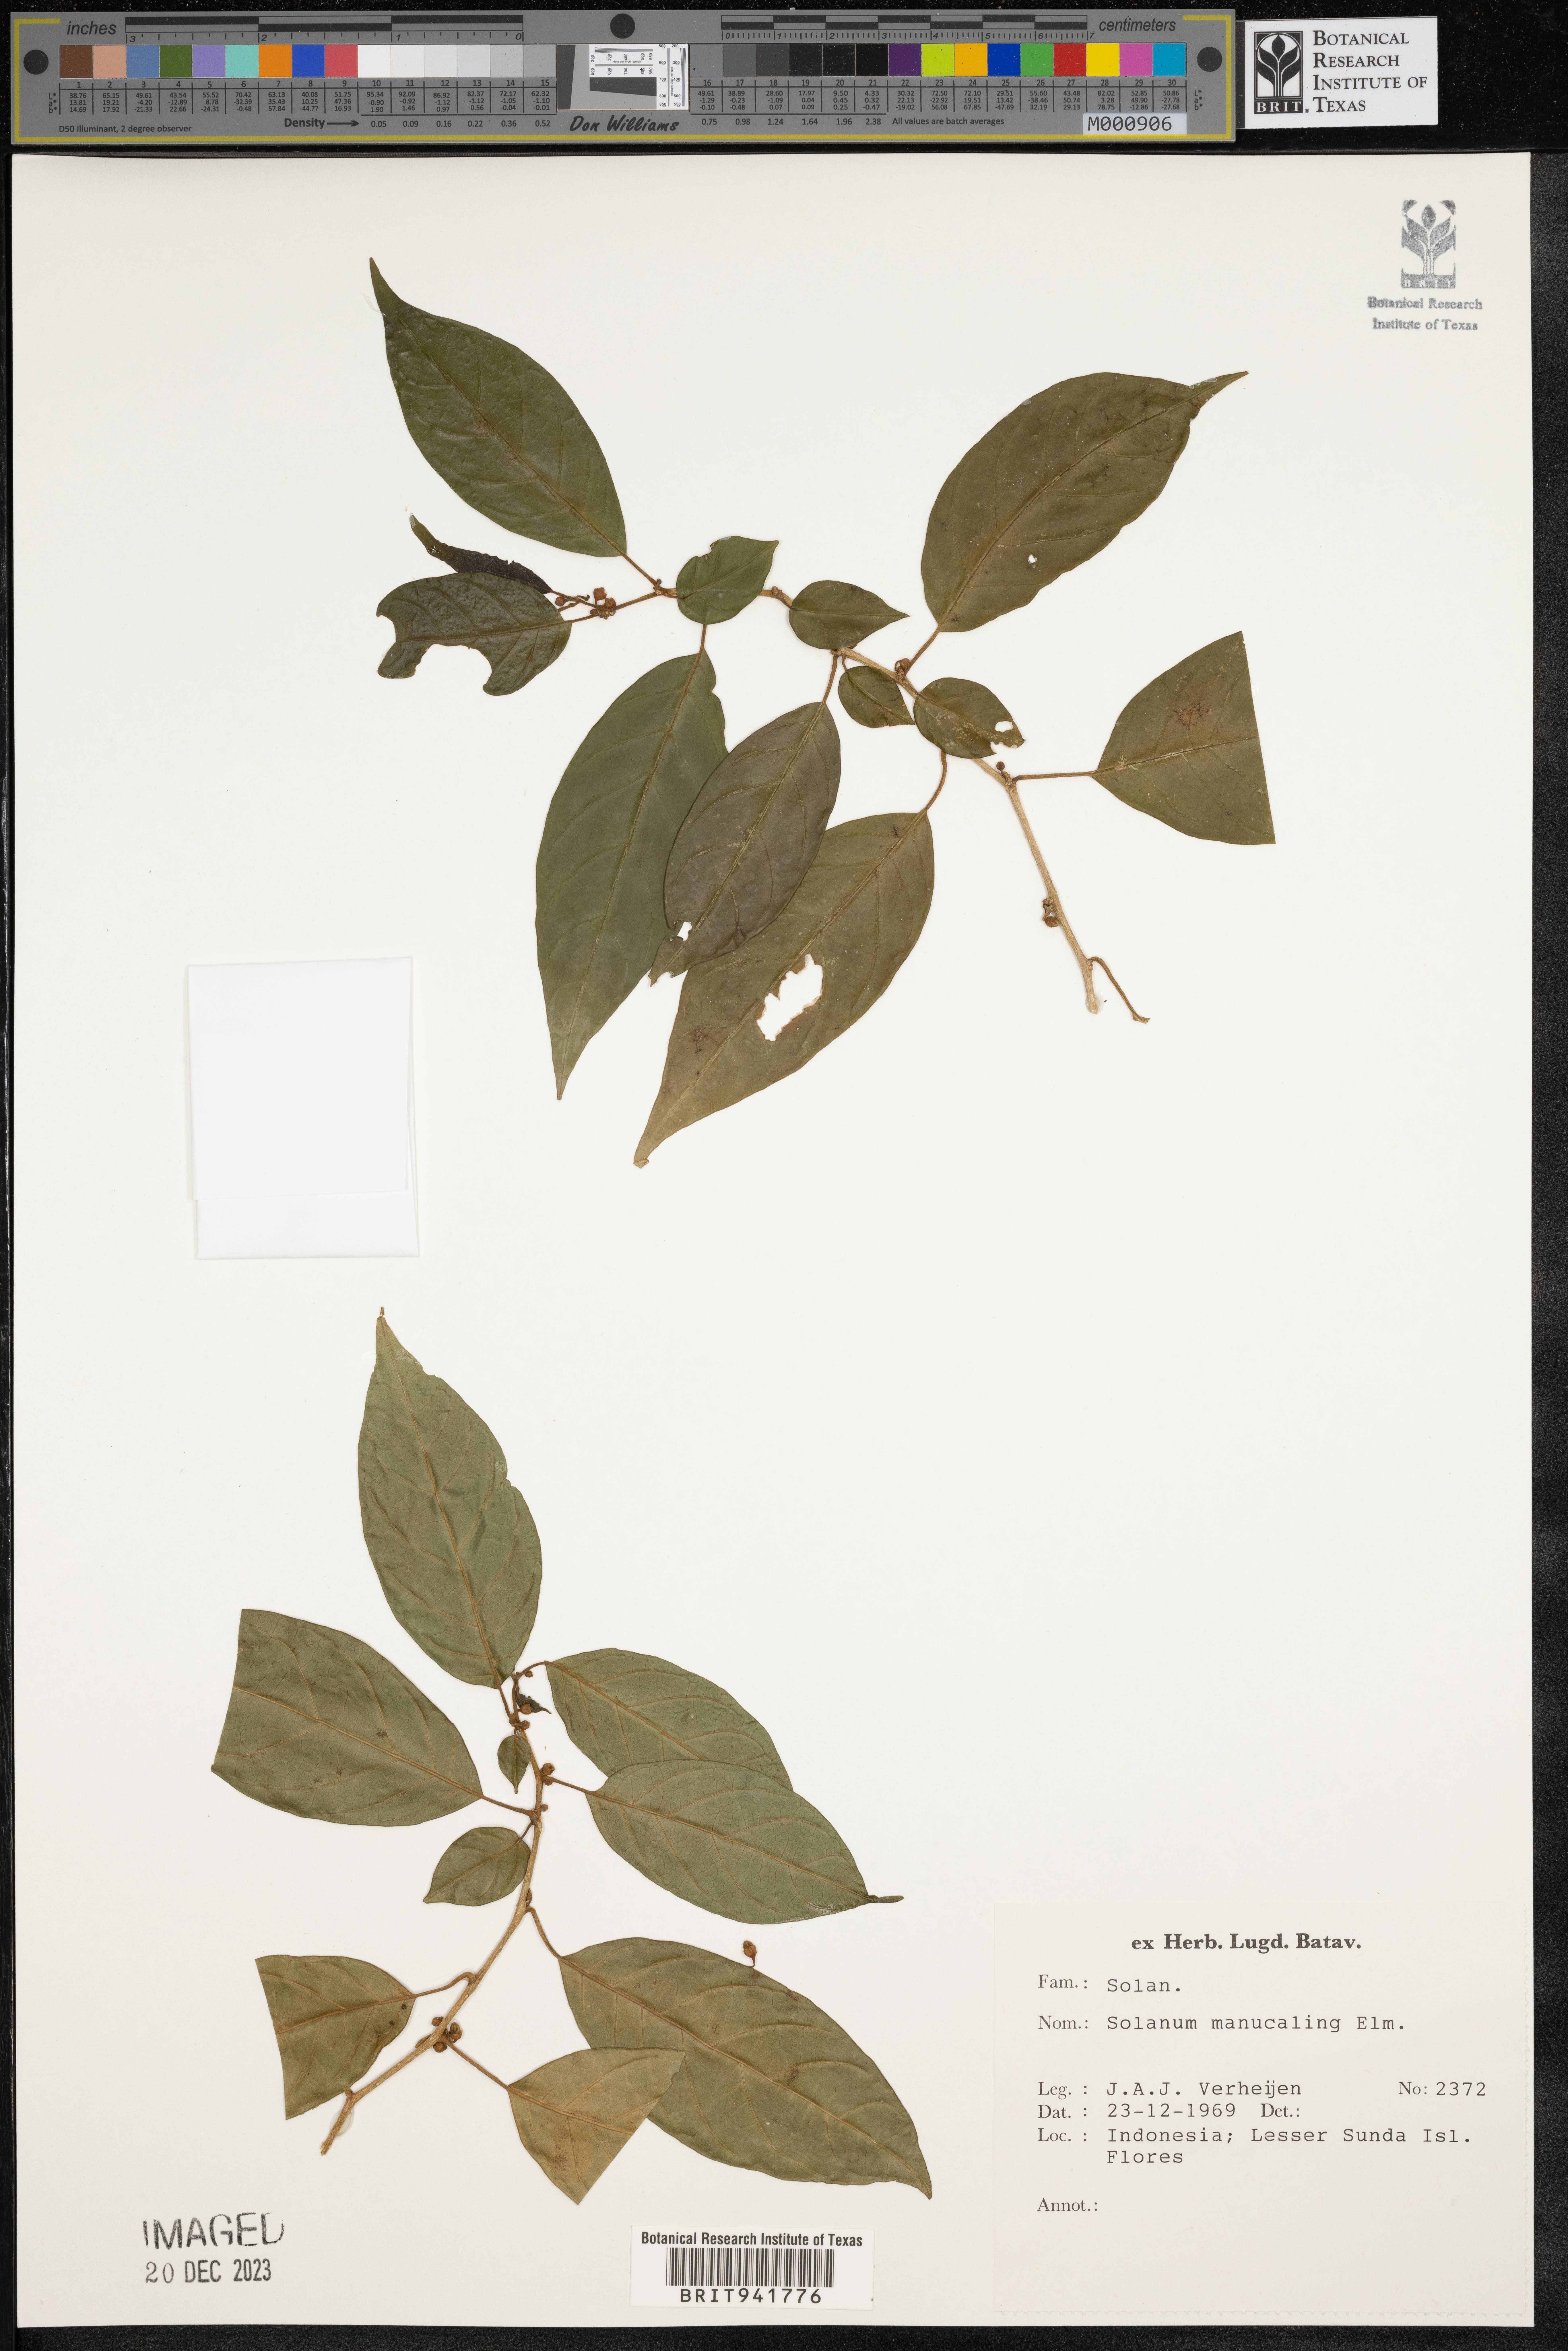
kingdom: Plantae
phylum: Tracheophyta
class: Magnoliopsida
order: Solanales
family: Solanaceae
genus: Solanum
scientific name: Solanum
